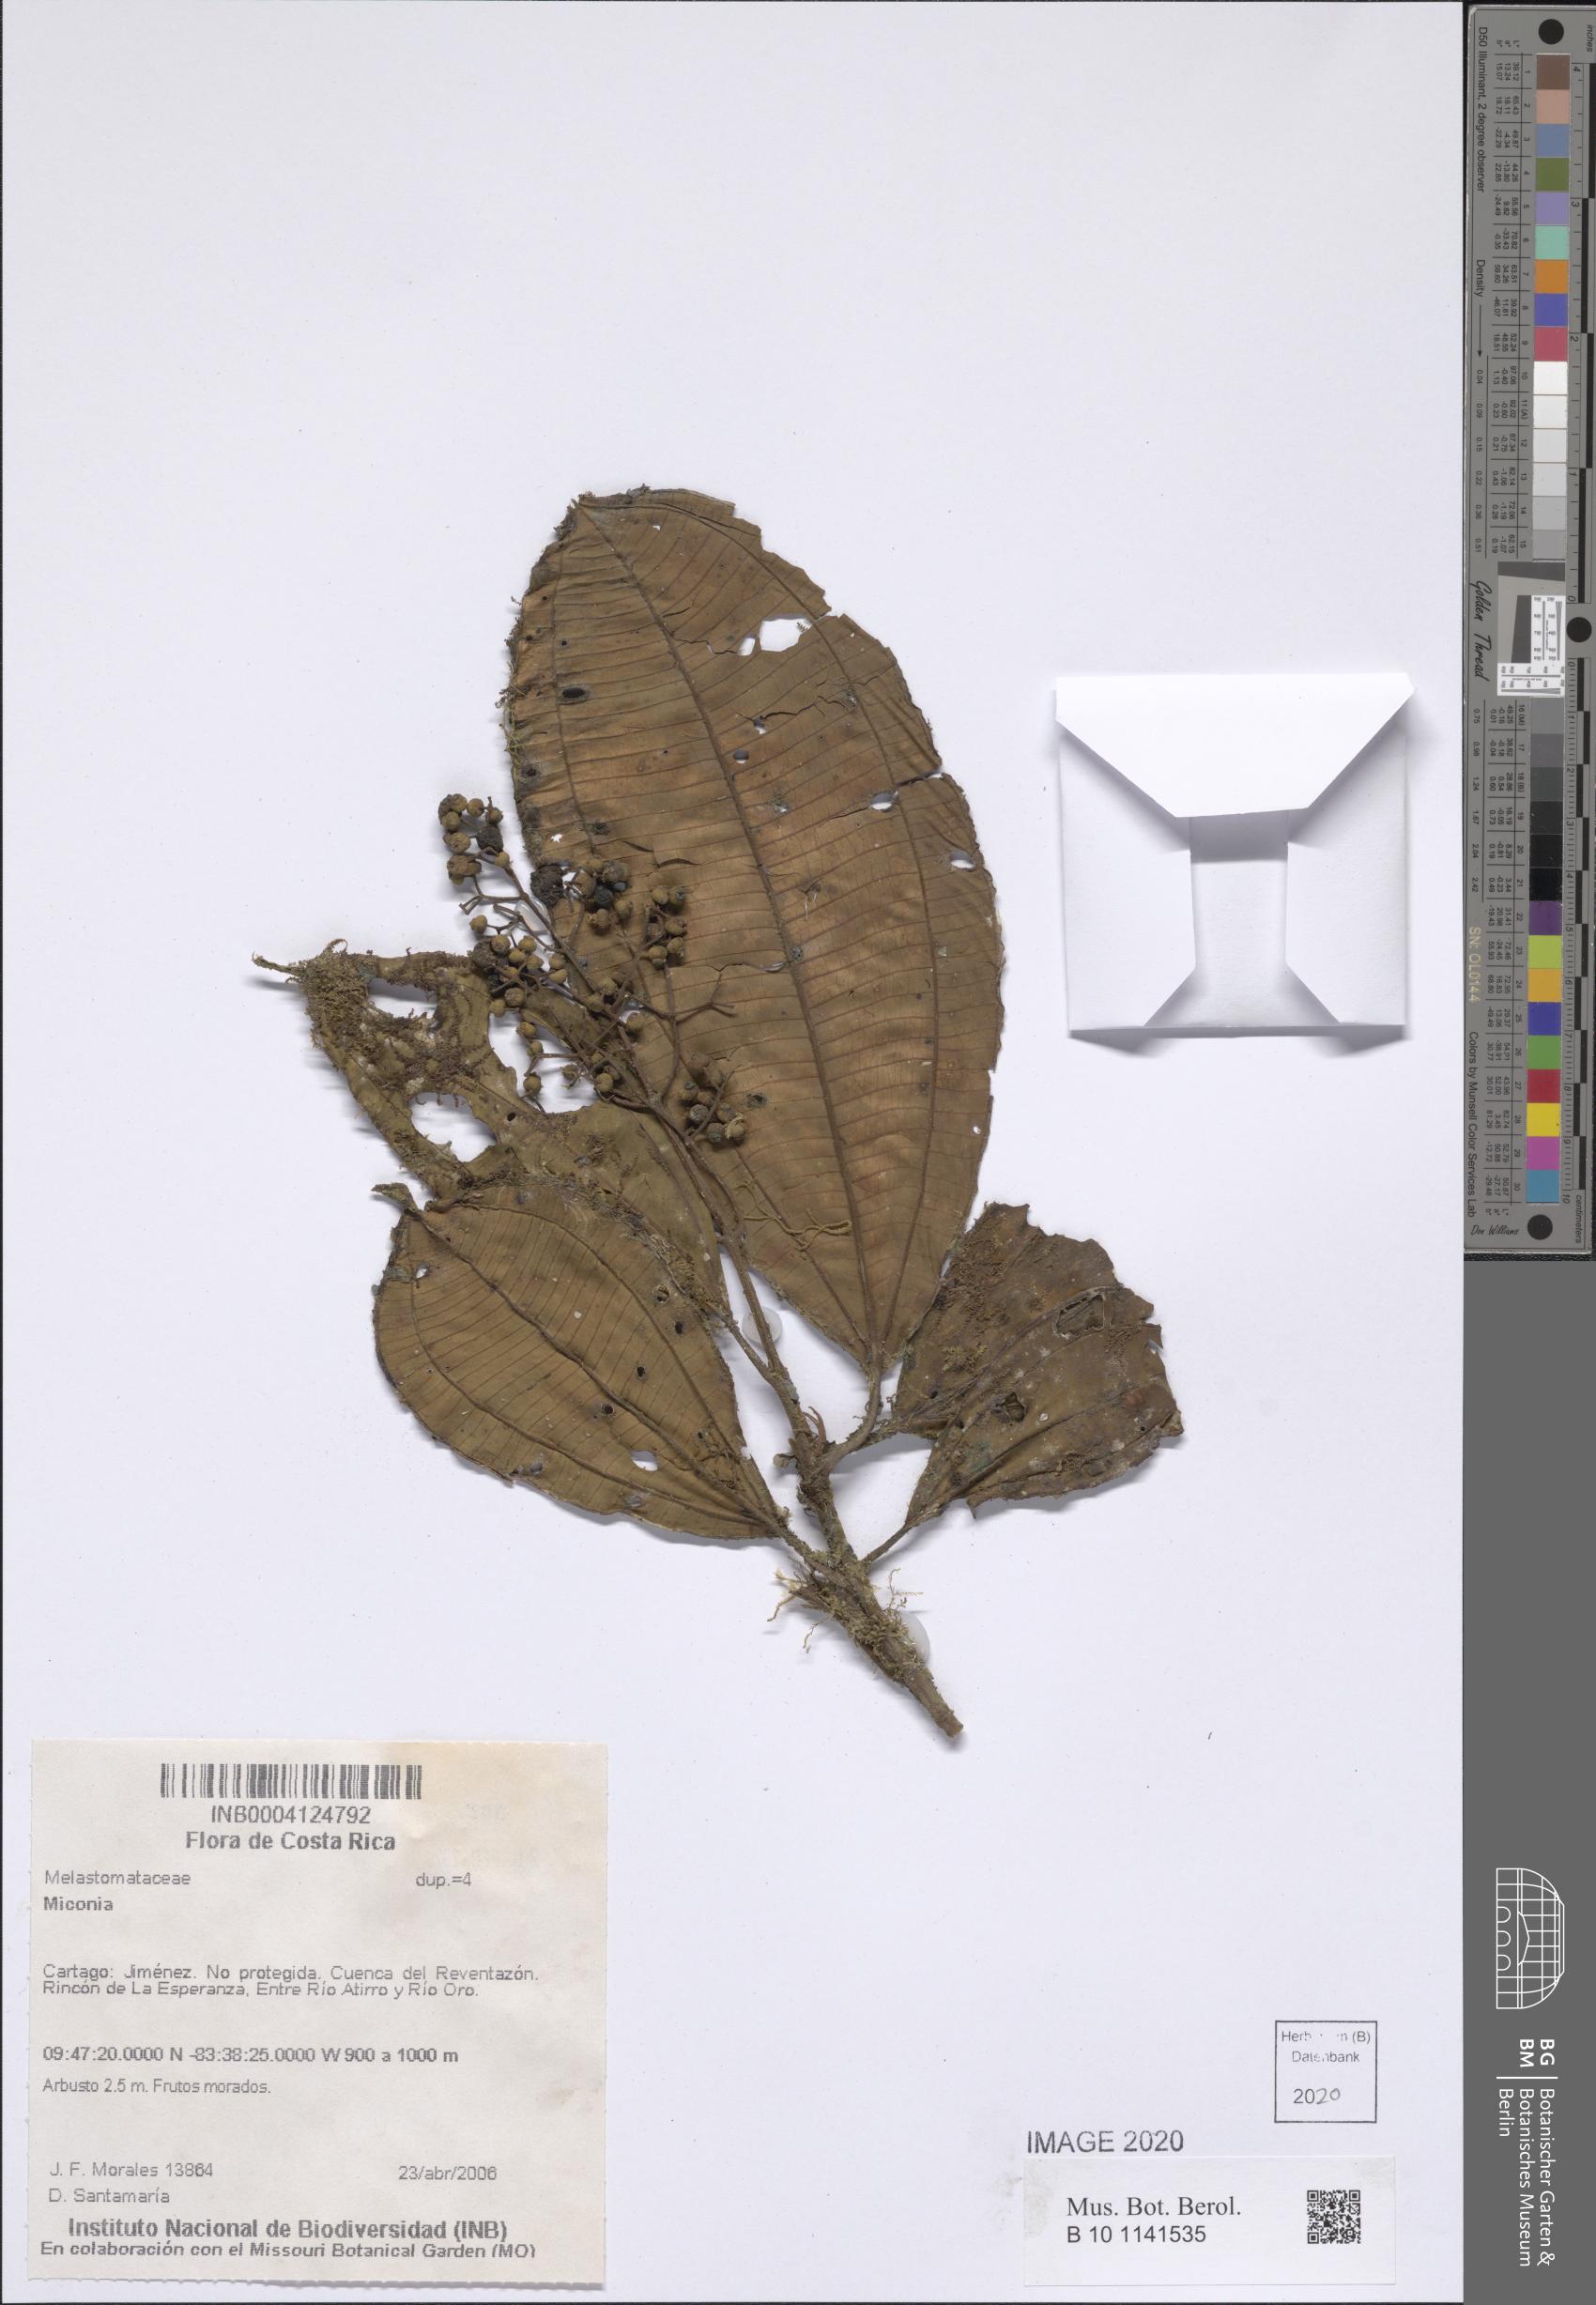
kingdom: Plantae
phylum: Tracheophyta
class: Magnoliopsida
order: Myrtales
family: Melastomataceae
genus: Miconia
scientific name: Miconia
